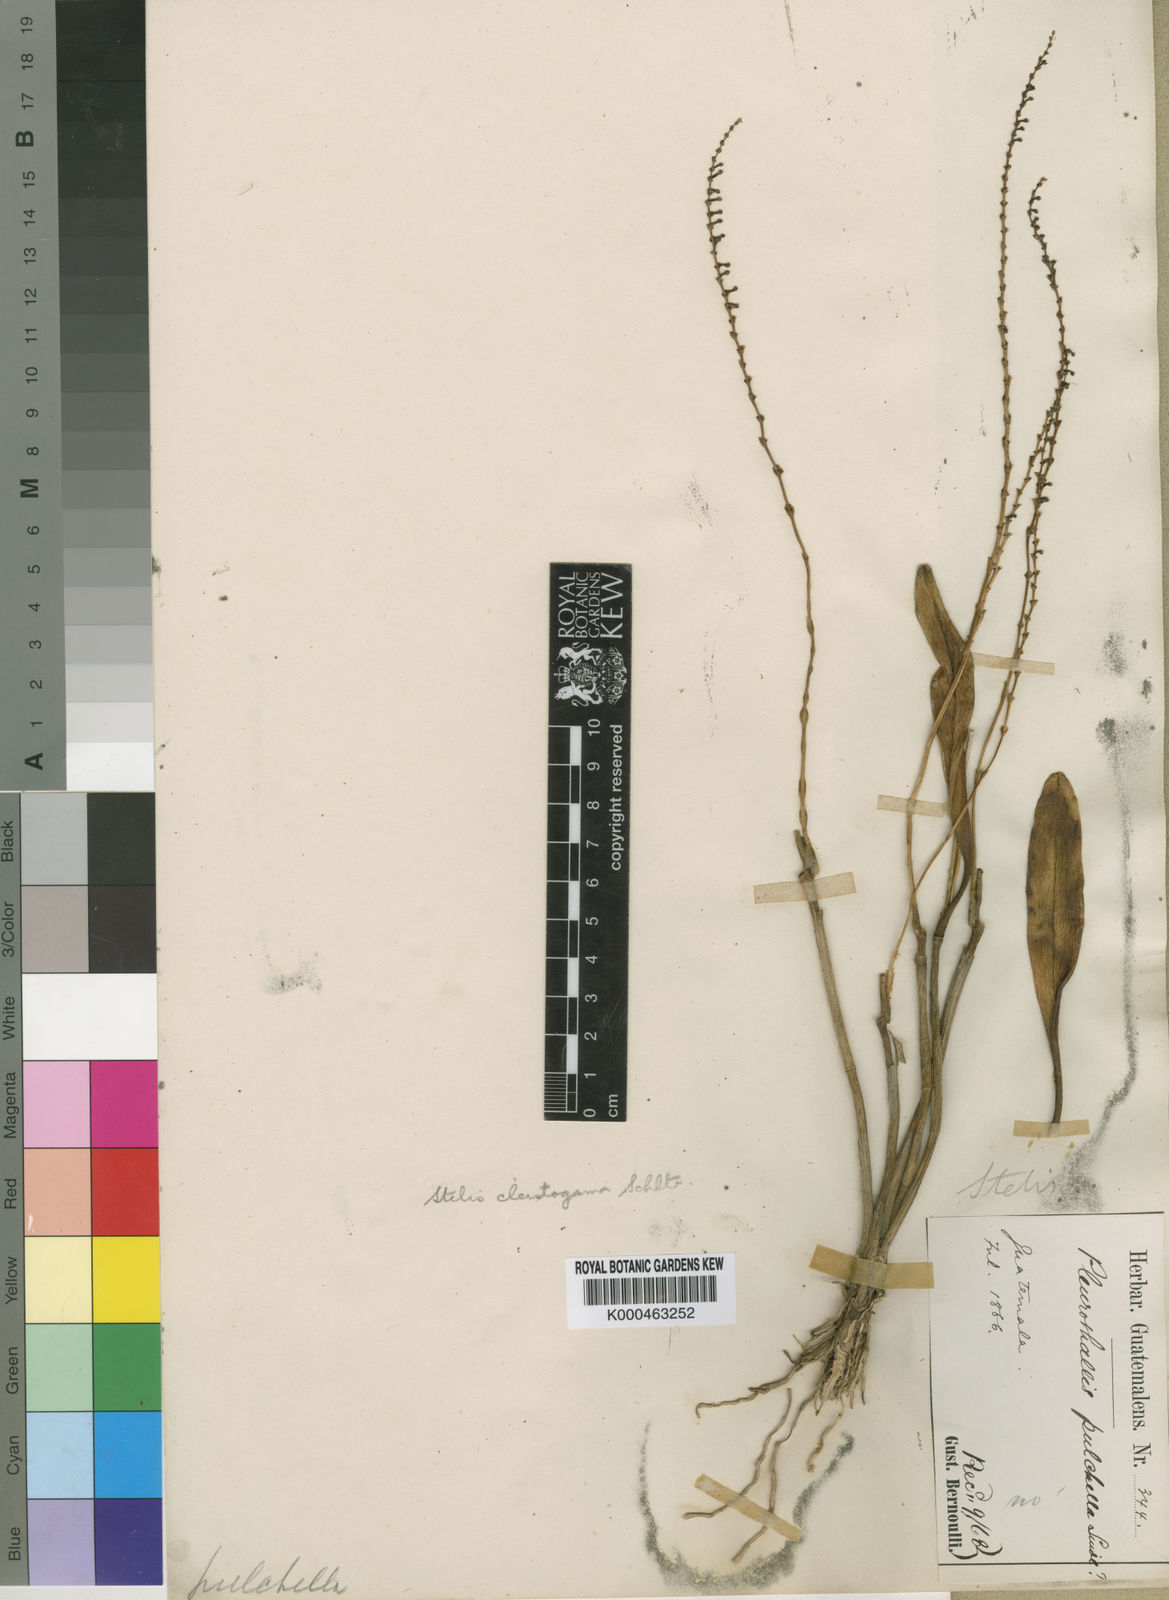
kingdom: Plantae
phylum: Tracheophyta
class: Liliopsida
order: Asparagales
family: Orchidaceae
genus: Stelis
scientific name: Stelis cleistogama
